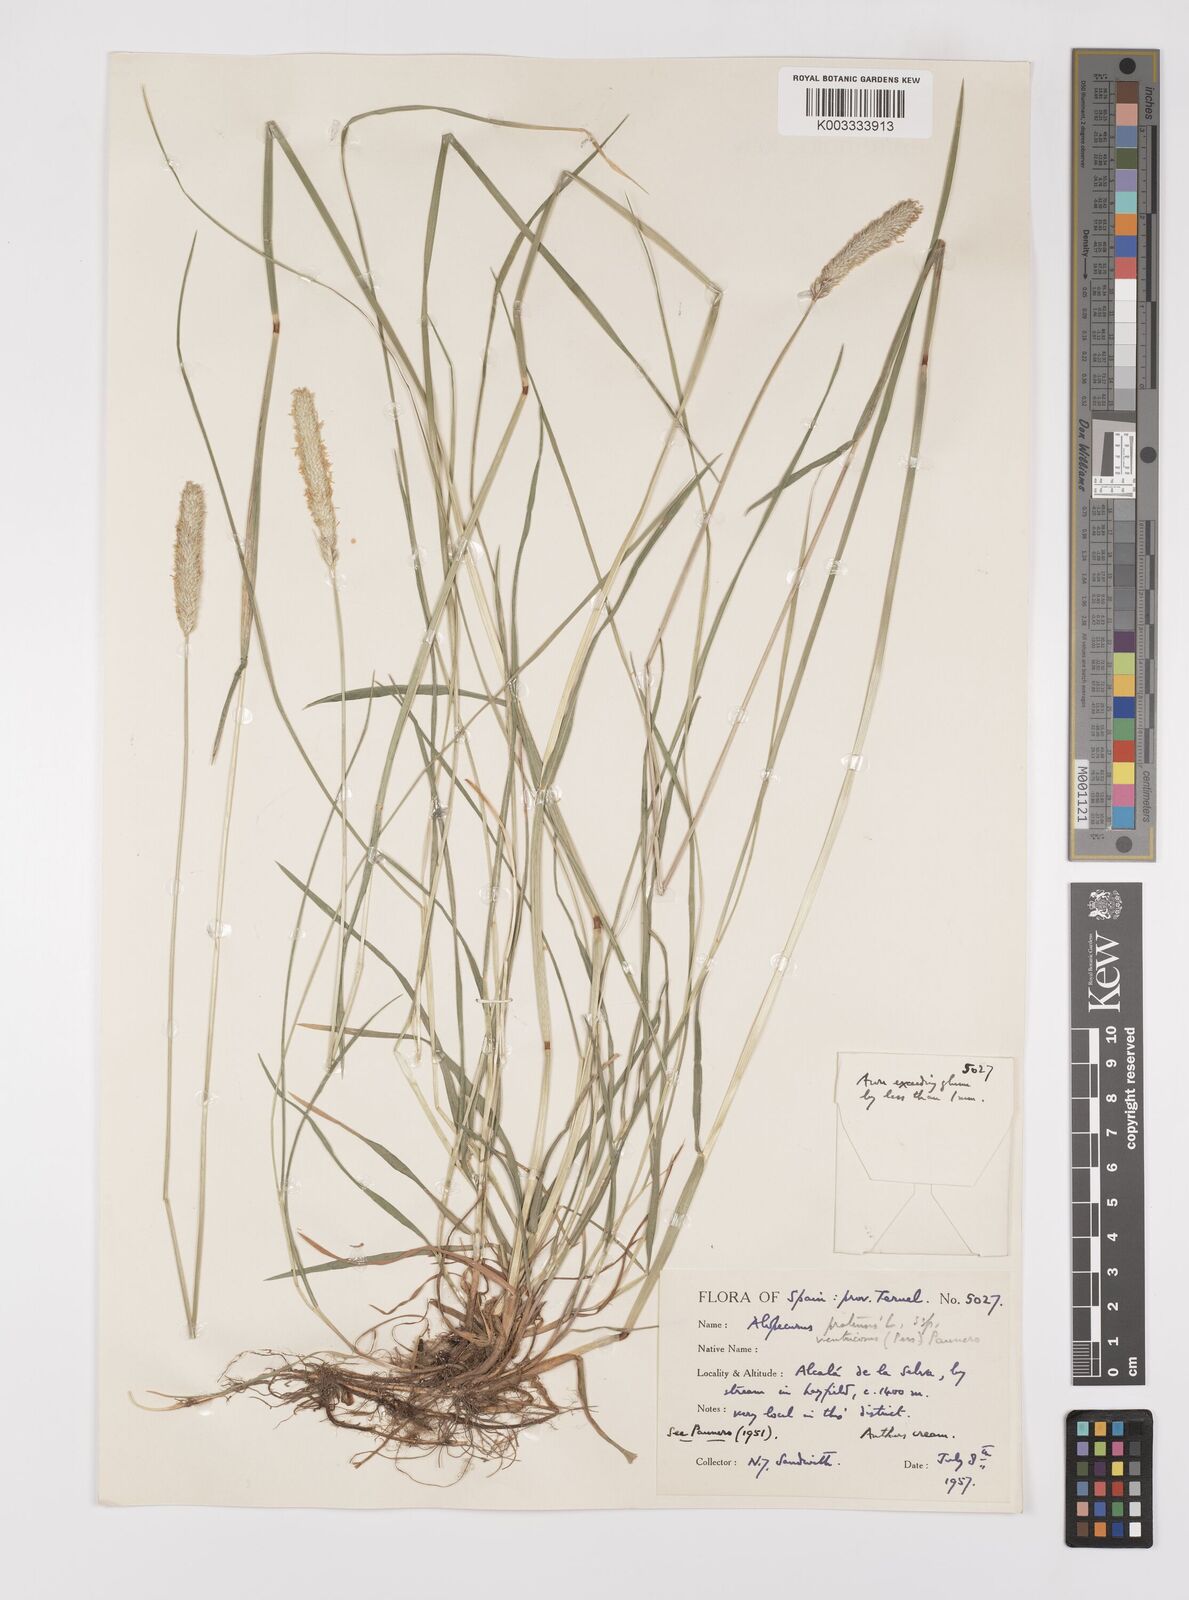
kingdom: Plantae
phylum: Tracheophyta
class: Liliopsida
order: Poales
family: Poaceae
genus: Alopecurus
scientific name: Alopecurus pratensis
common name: Meadow foxtail
